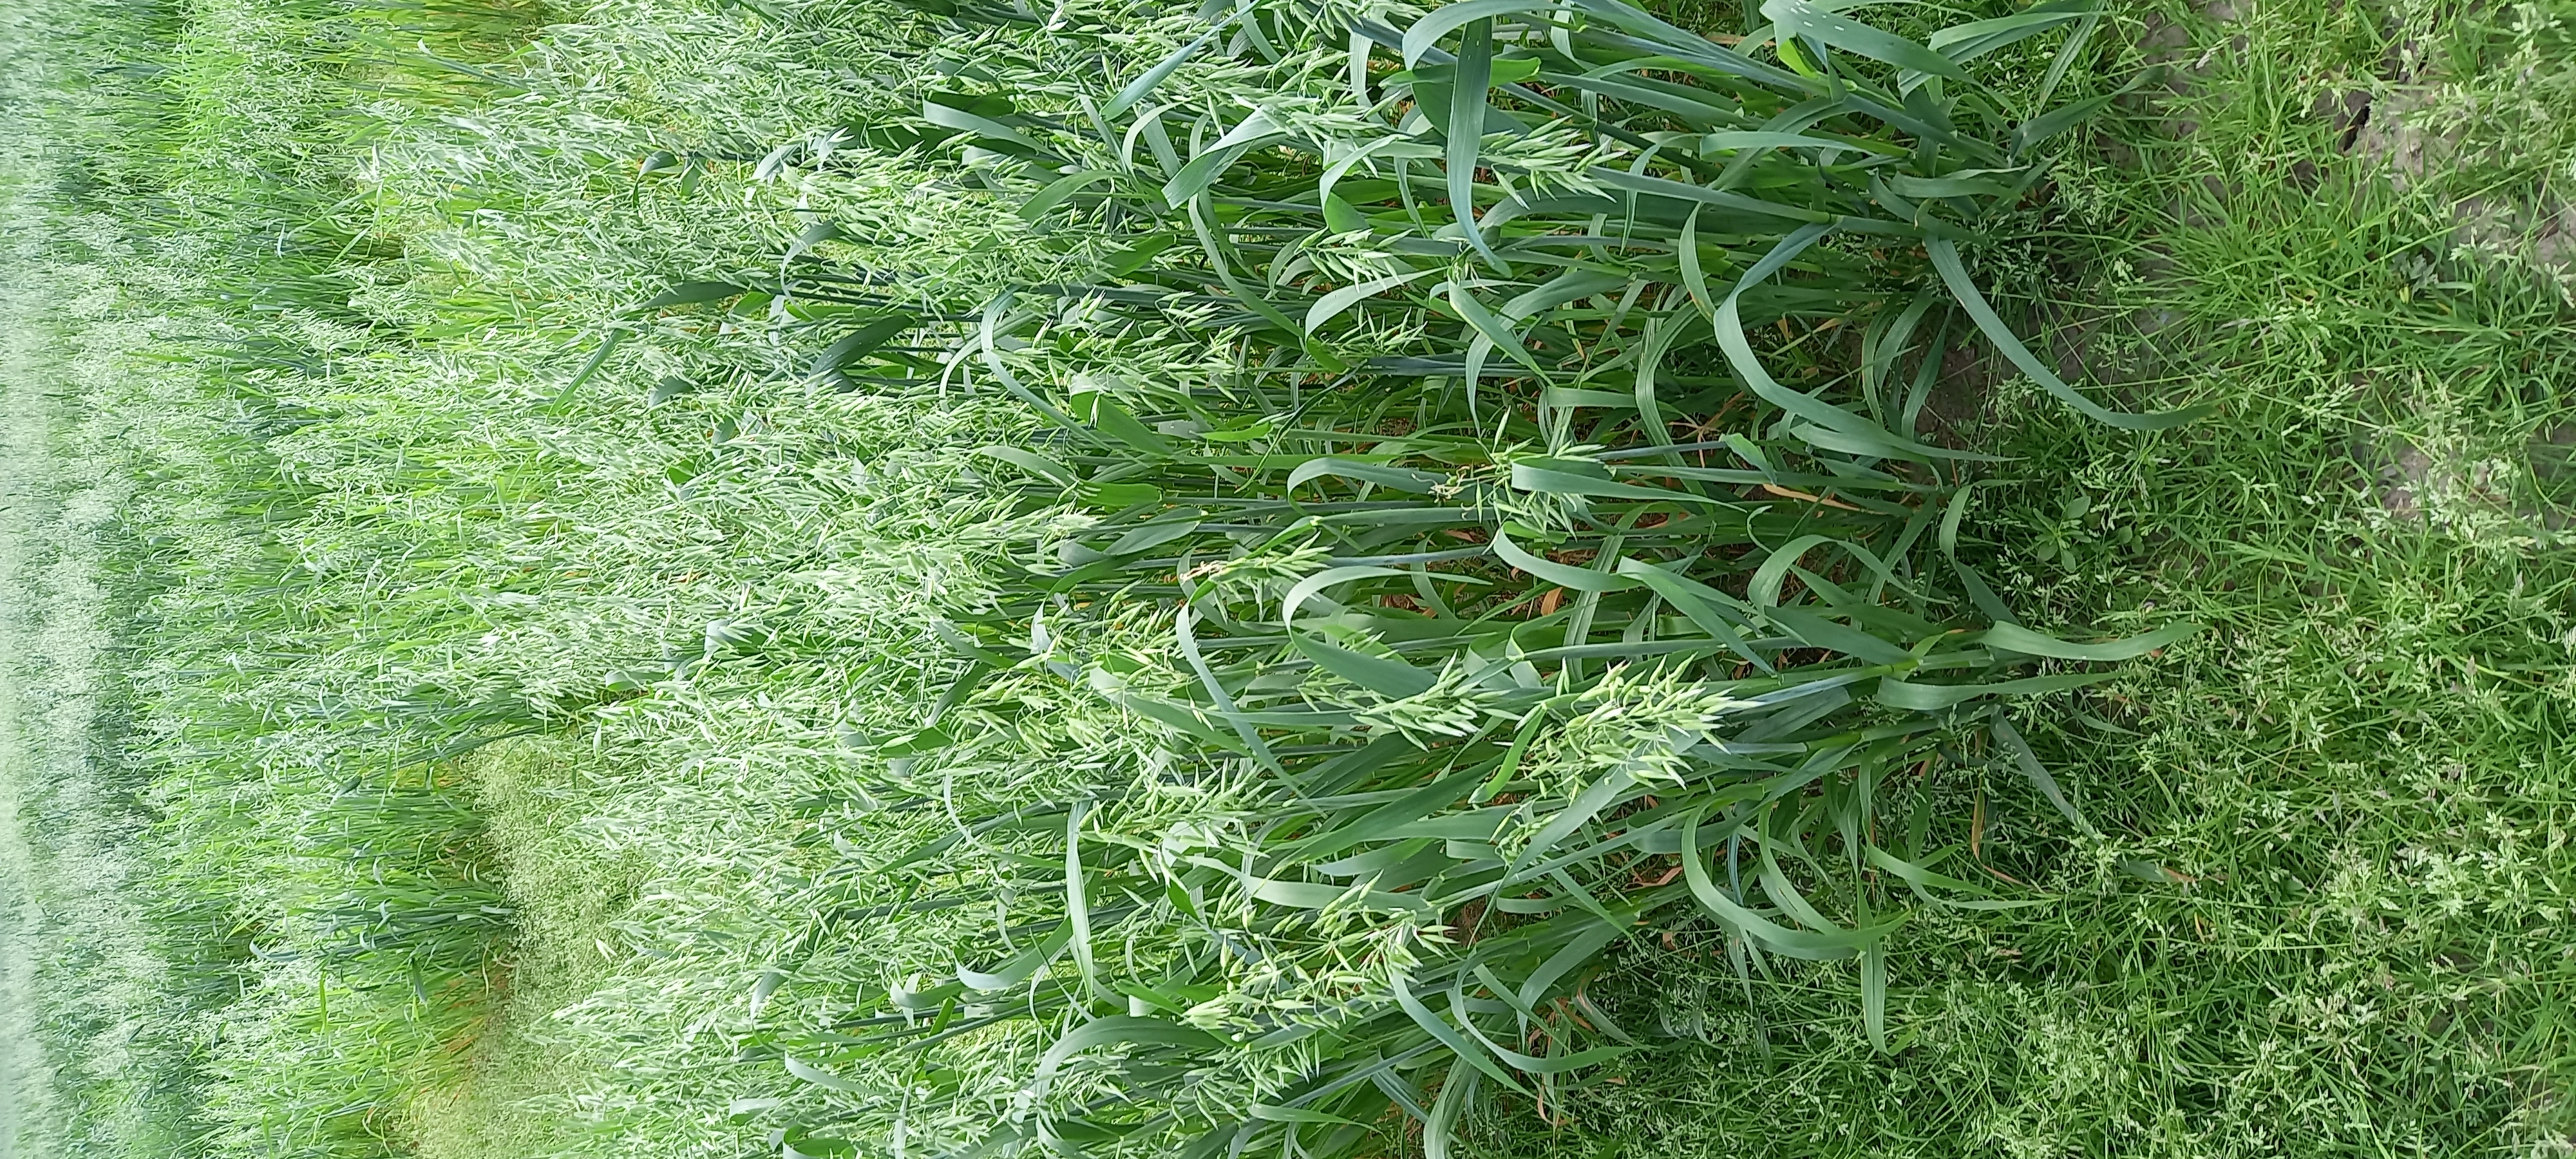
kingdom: Plantae
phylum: Tracheophyta
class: Liliopsida
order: Poales
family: Poaceae
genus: Avena
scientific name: Avena sativa
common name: Oat
